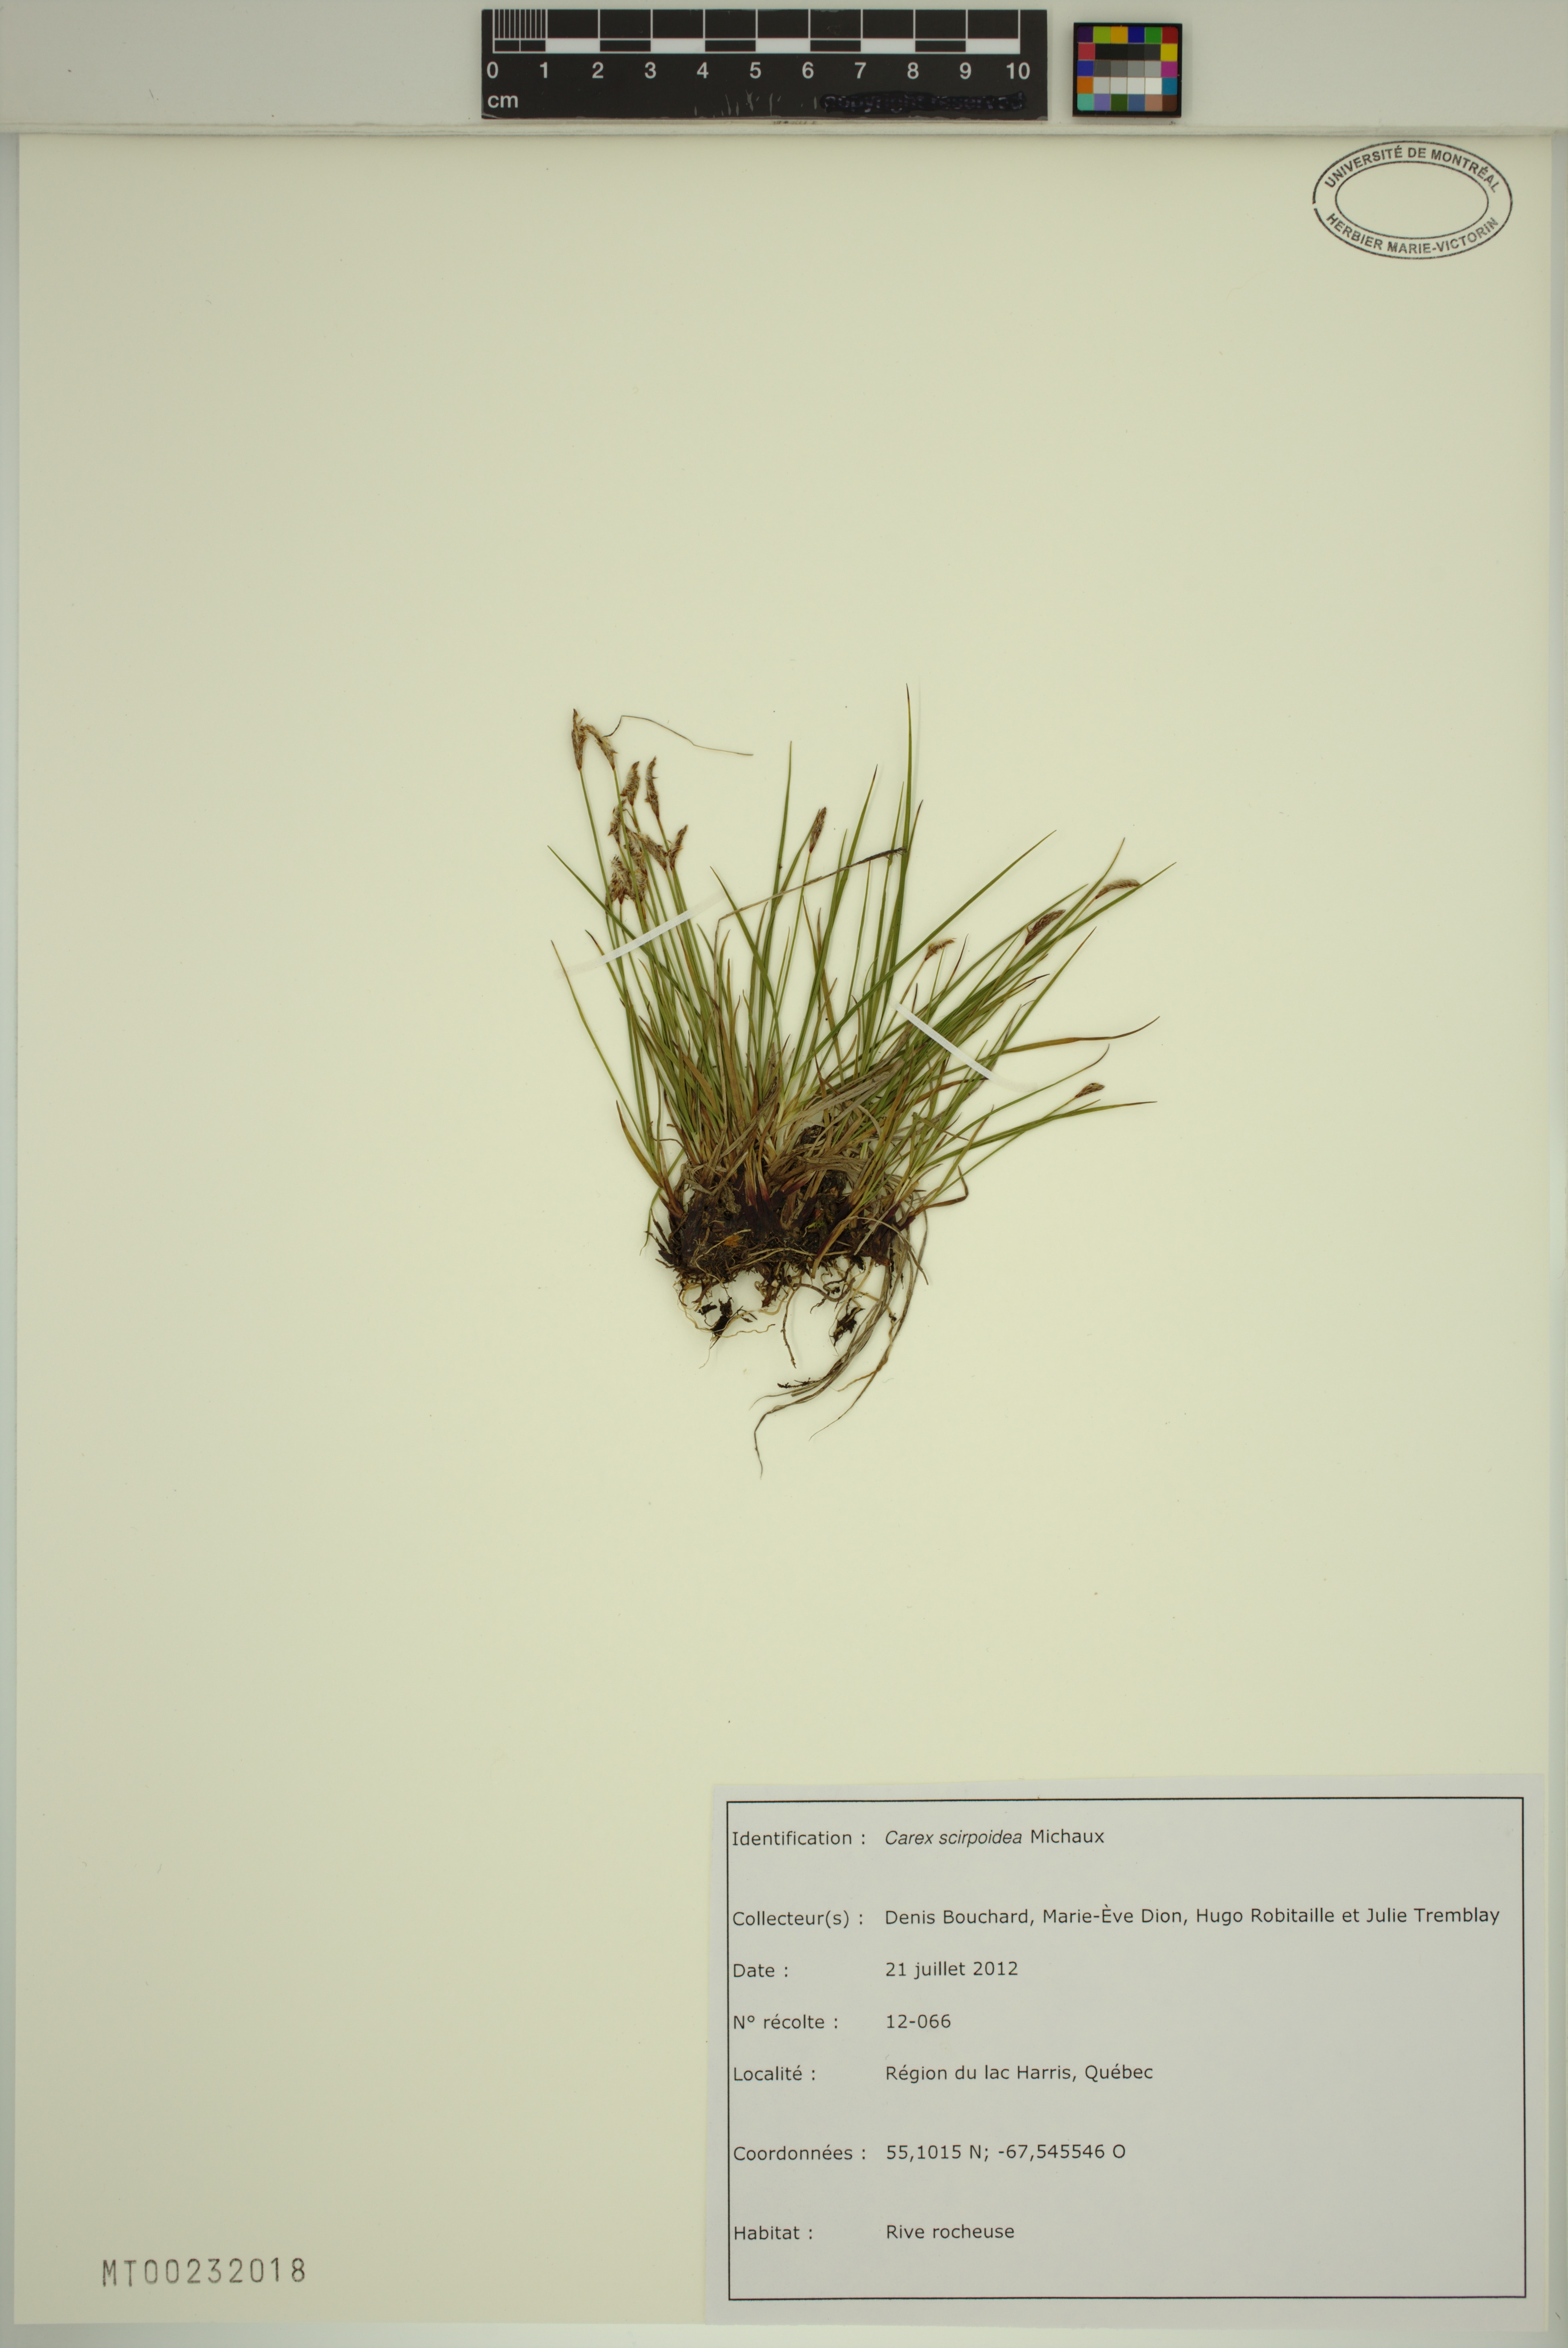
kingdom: Plantae
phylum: Tracheophyta
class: Liliopsida
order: Poales
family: Cyperaceae
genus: Carex
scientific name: Carex scirpoidea
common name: Canada single-spike sedge
